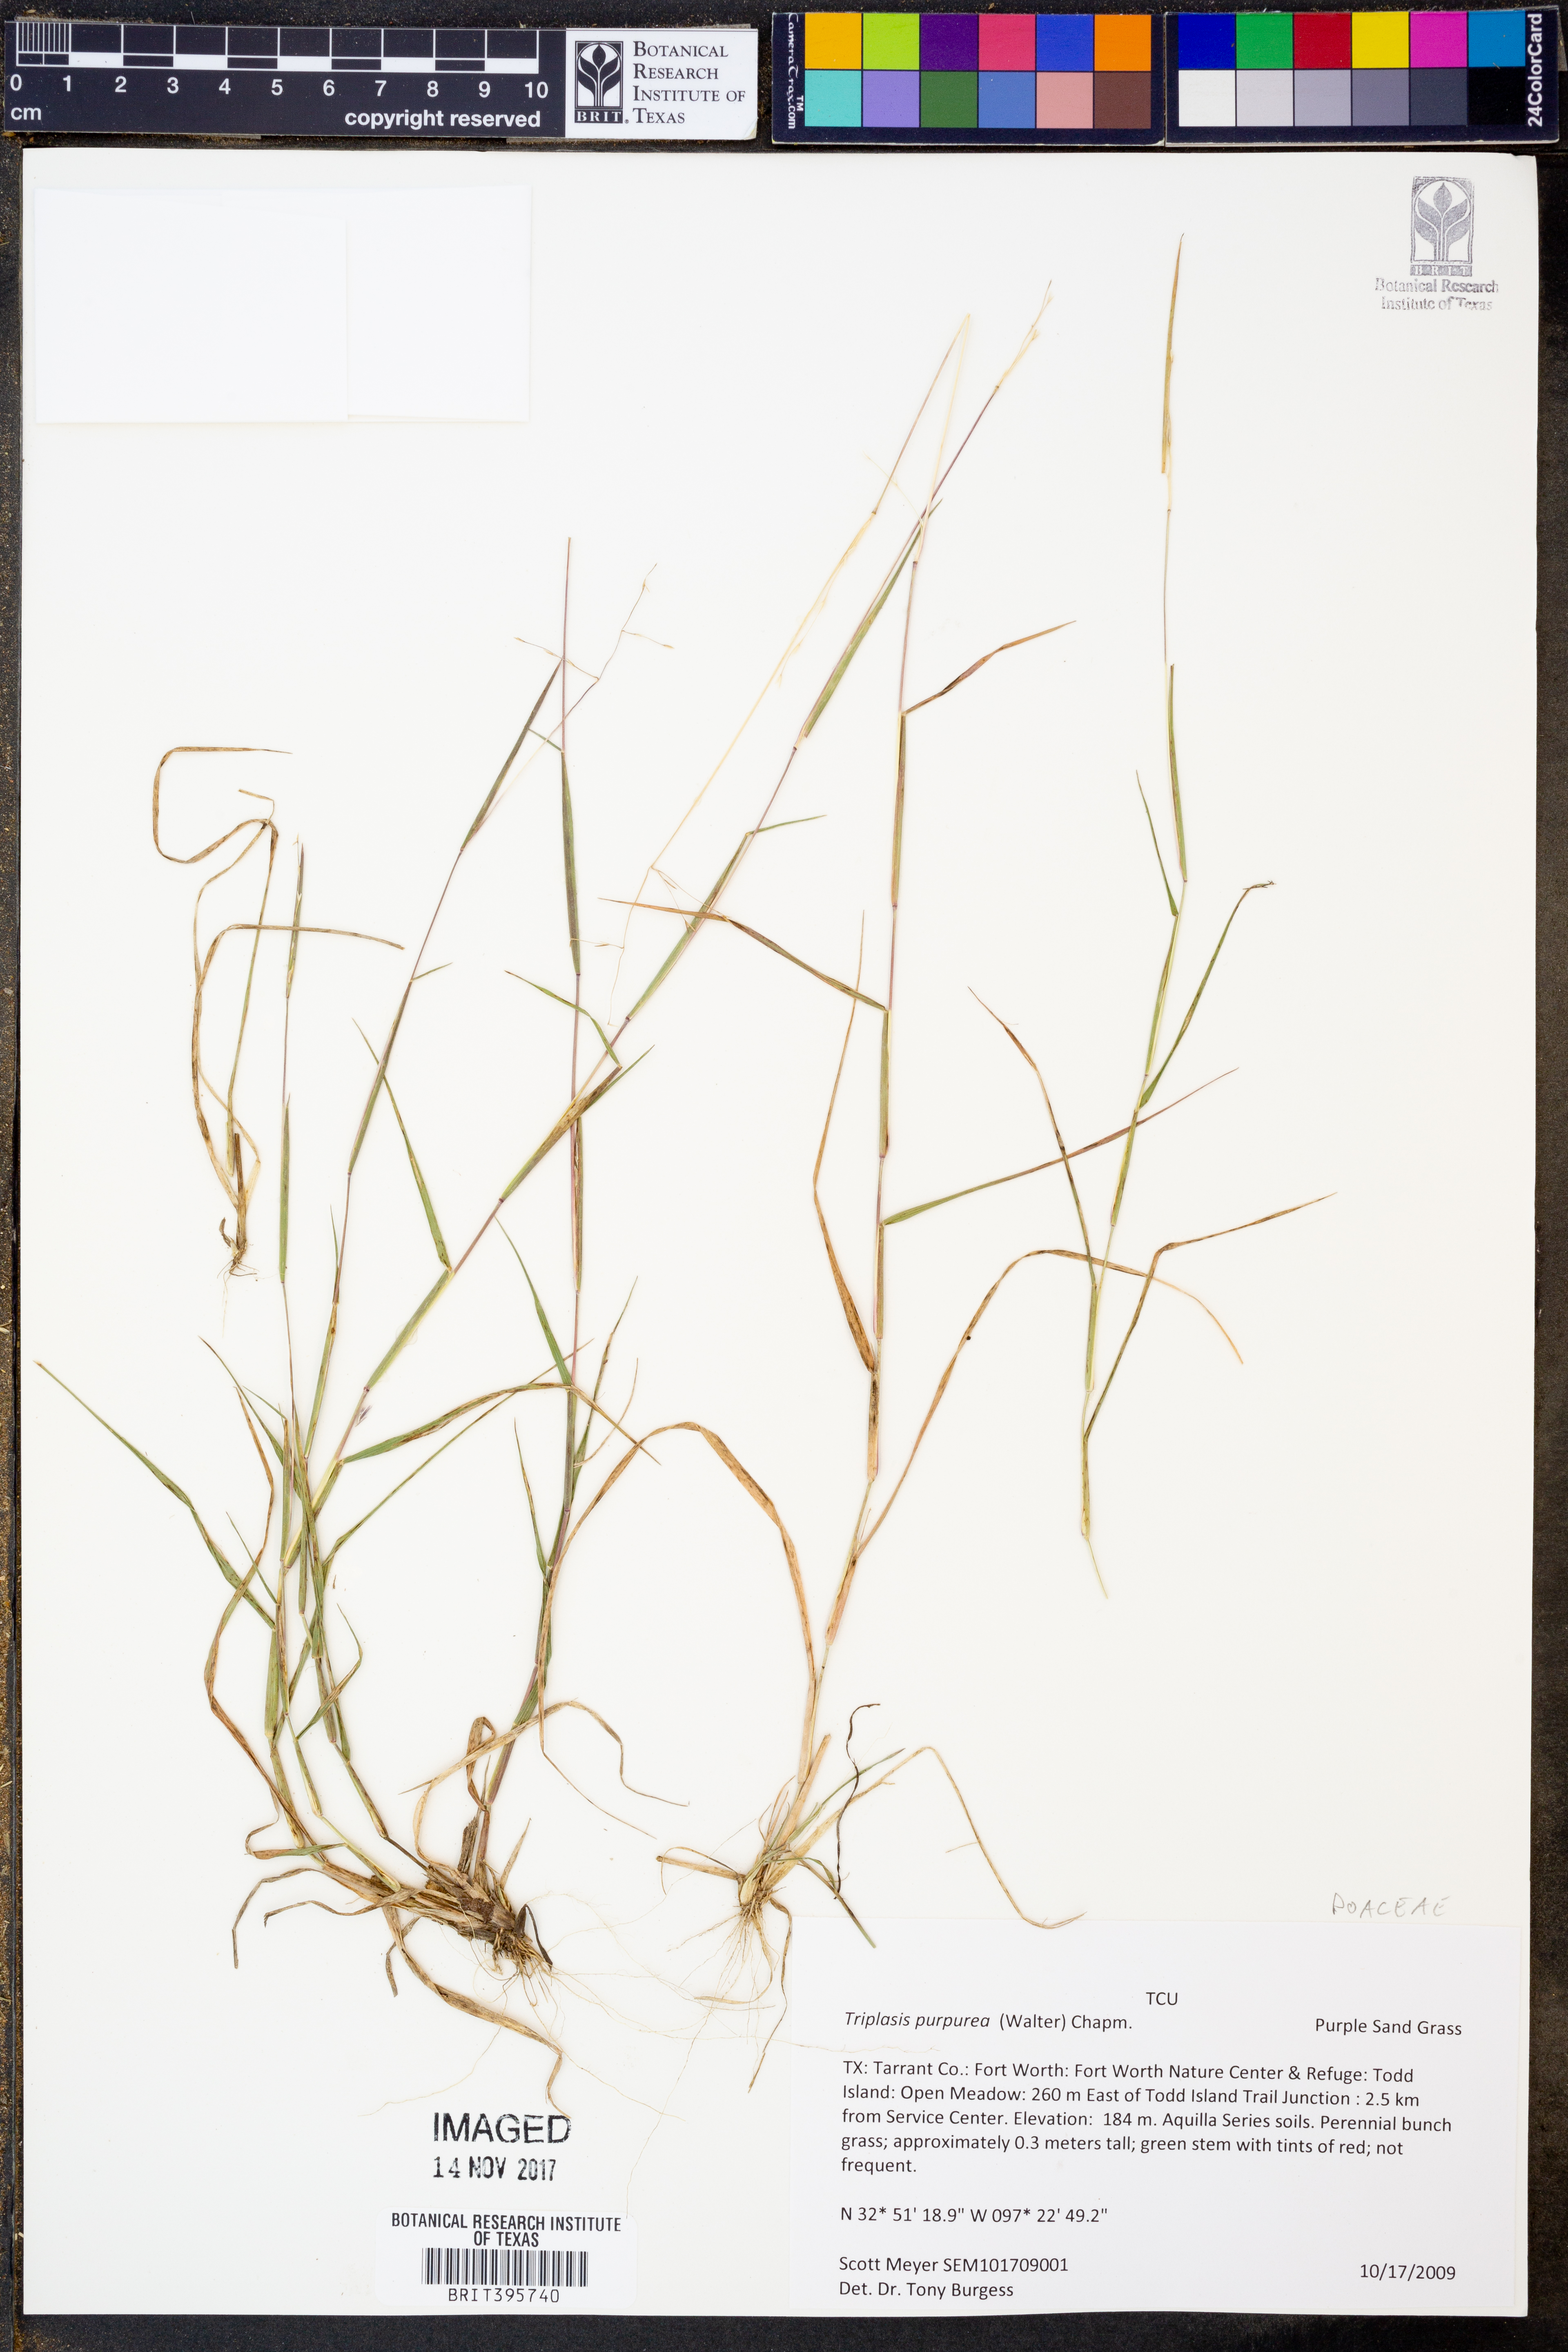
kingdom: Plantae
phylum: Tracheophyta
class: Liliopsida
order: Poales
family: Poaceae
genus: Triplasis
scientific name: Triplasis purpurea
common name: Purple sand grass
